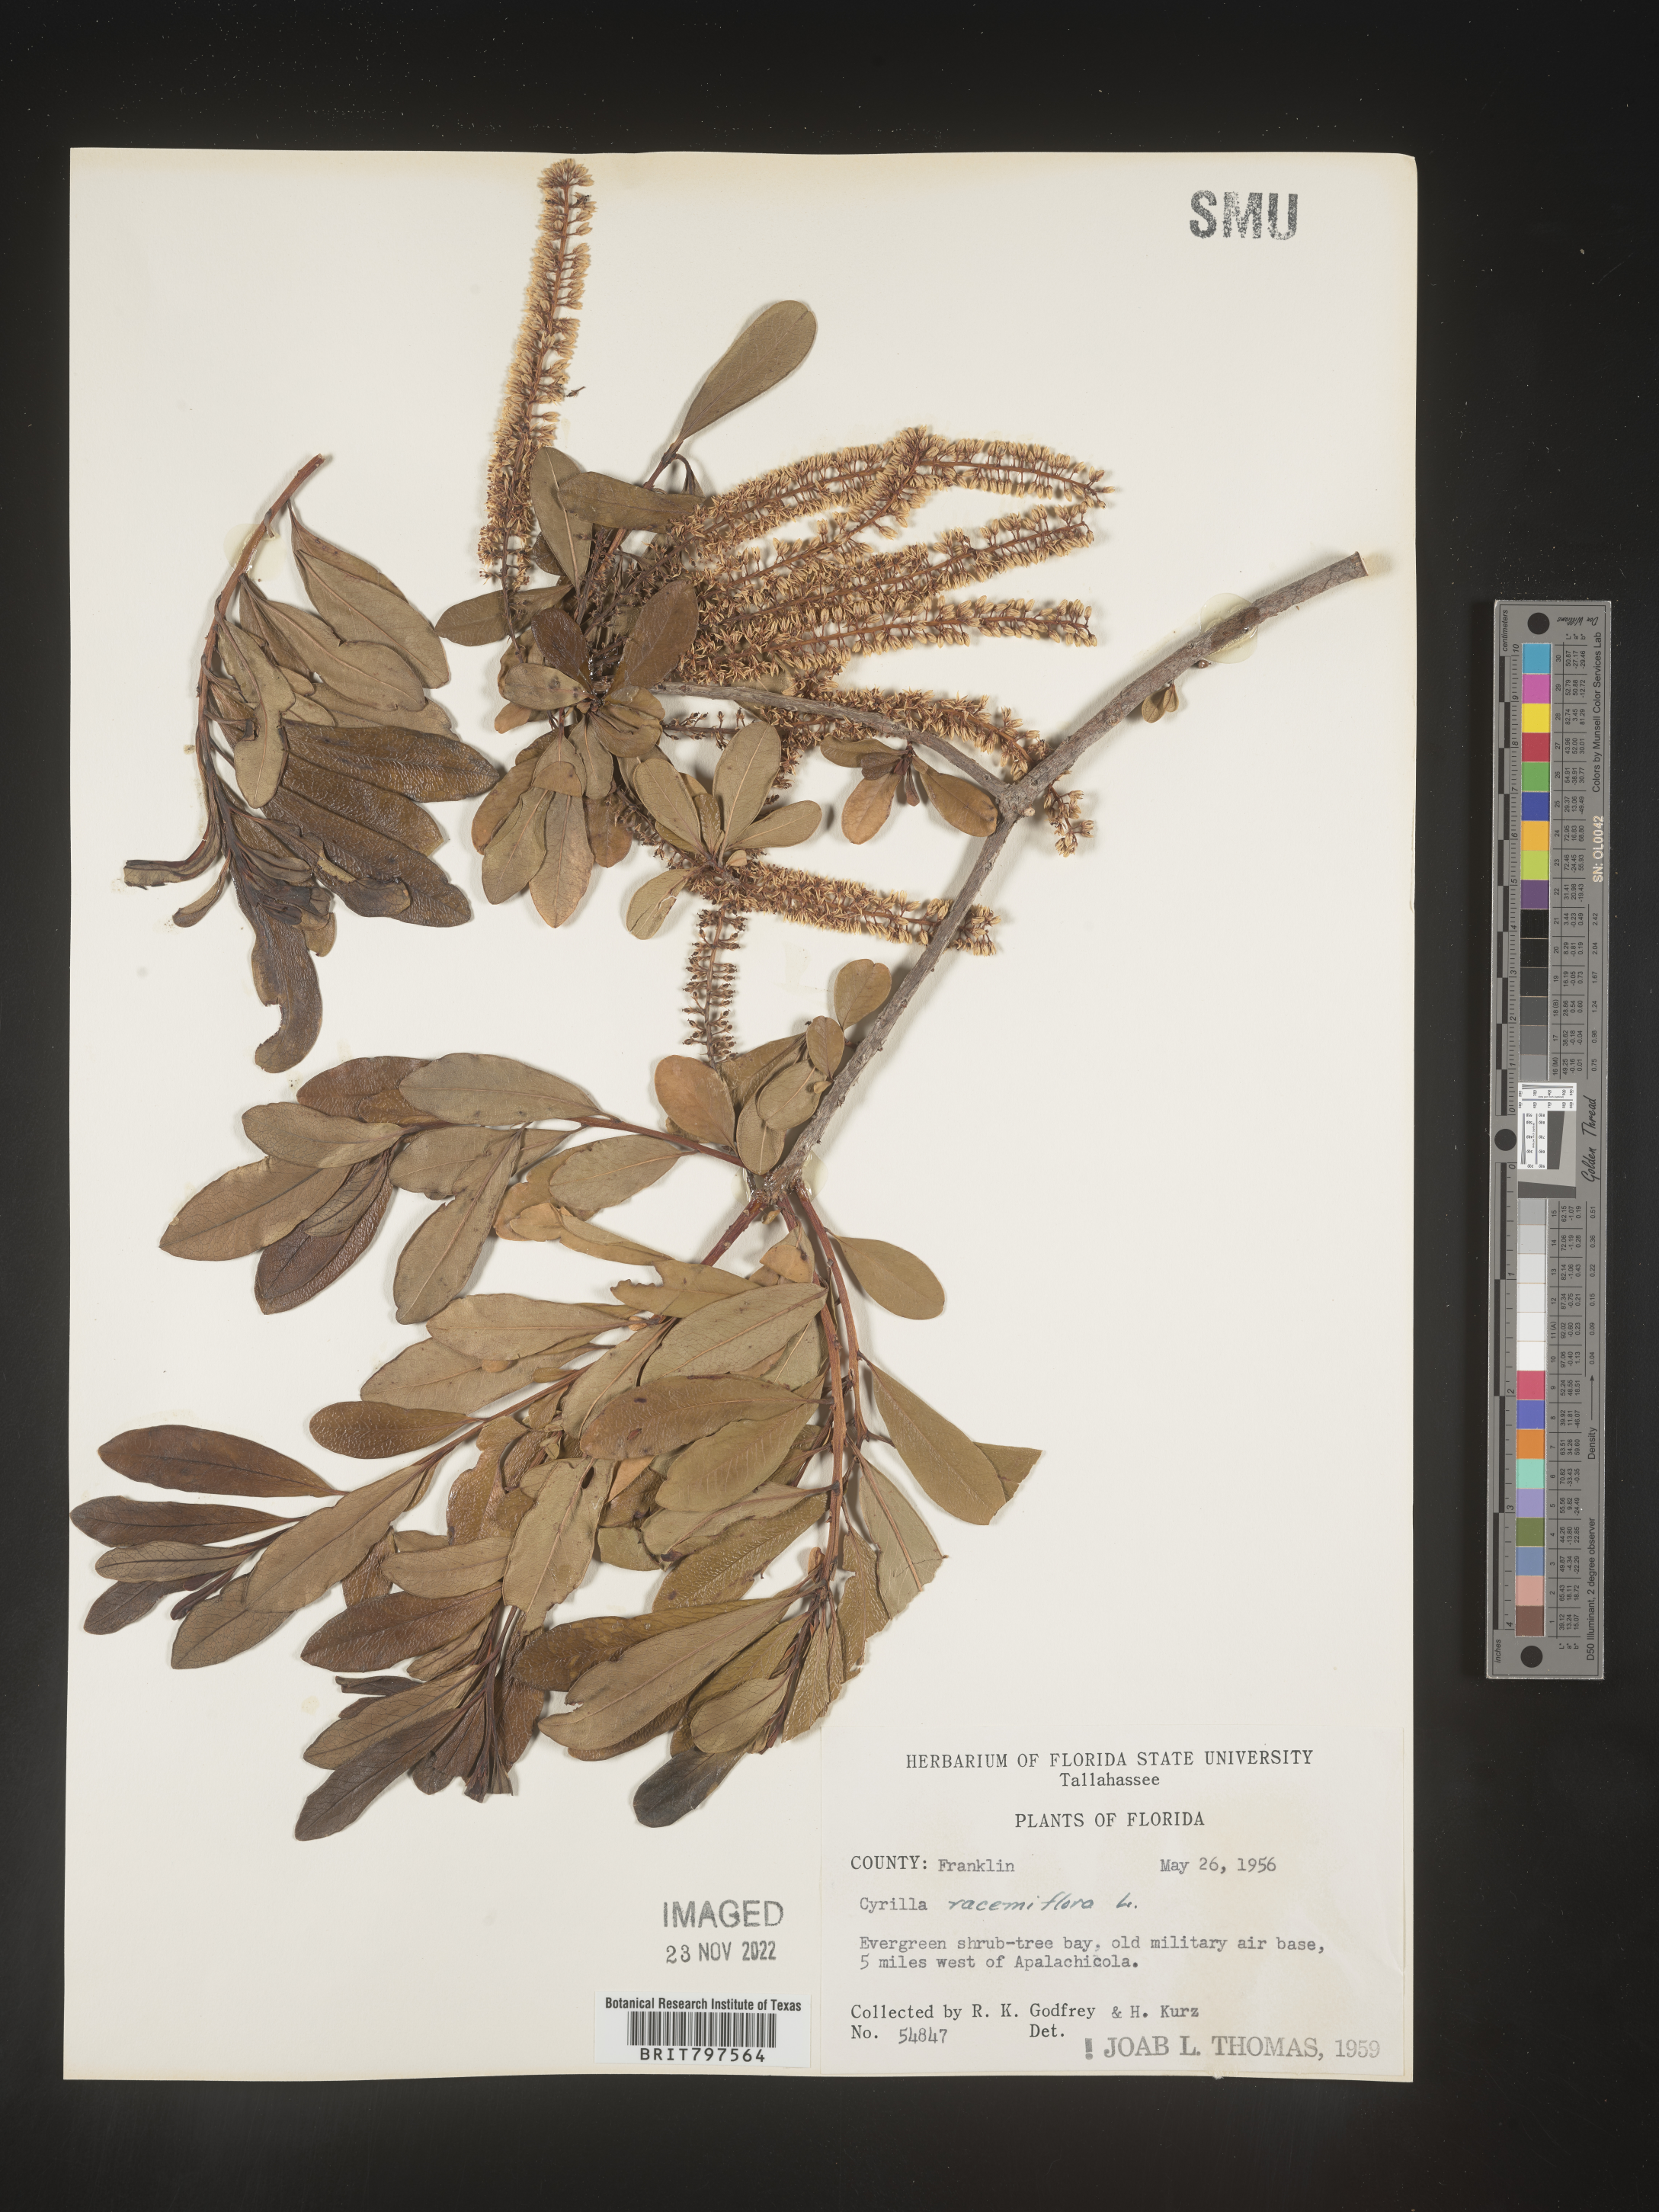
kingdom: Plantae
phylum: Tracheophyta
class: Magnoliopsida
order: Ericales
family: Cyrillaceae
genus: Cyrilla
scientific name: Cyrilla racemiflora
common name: Black titi
